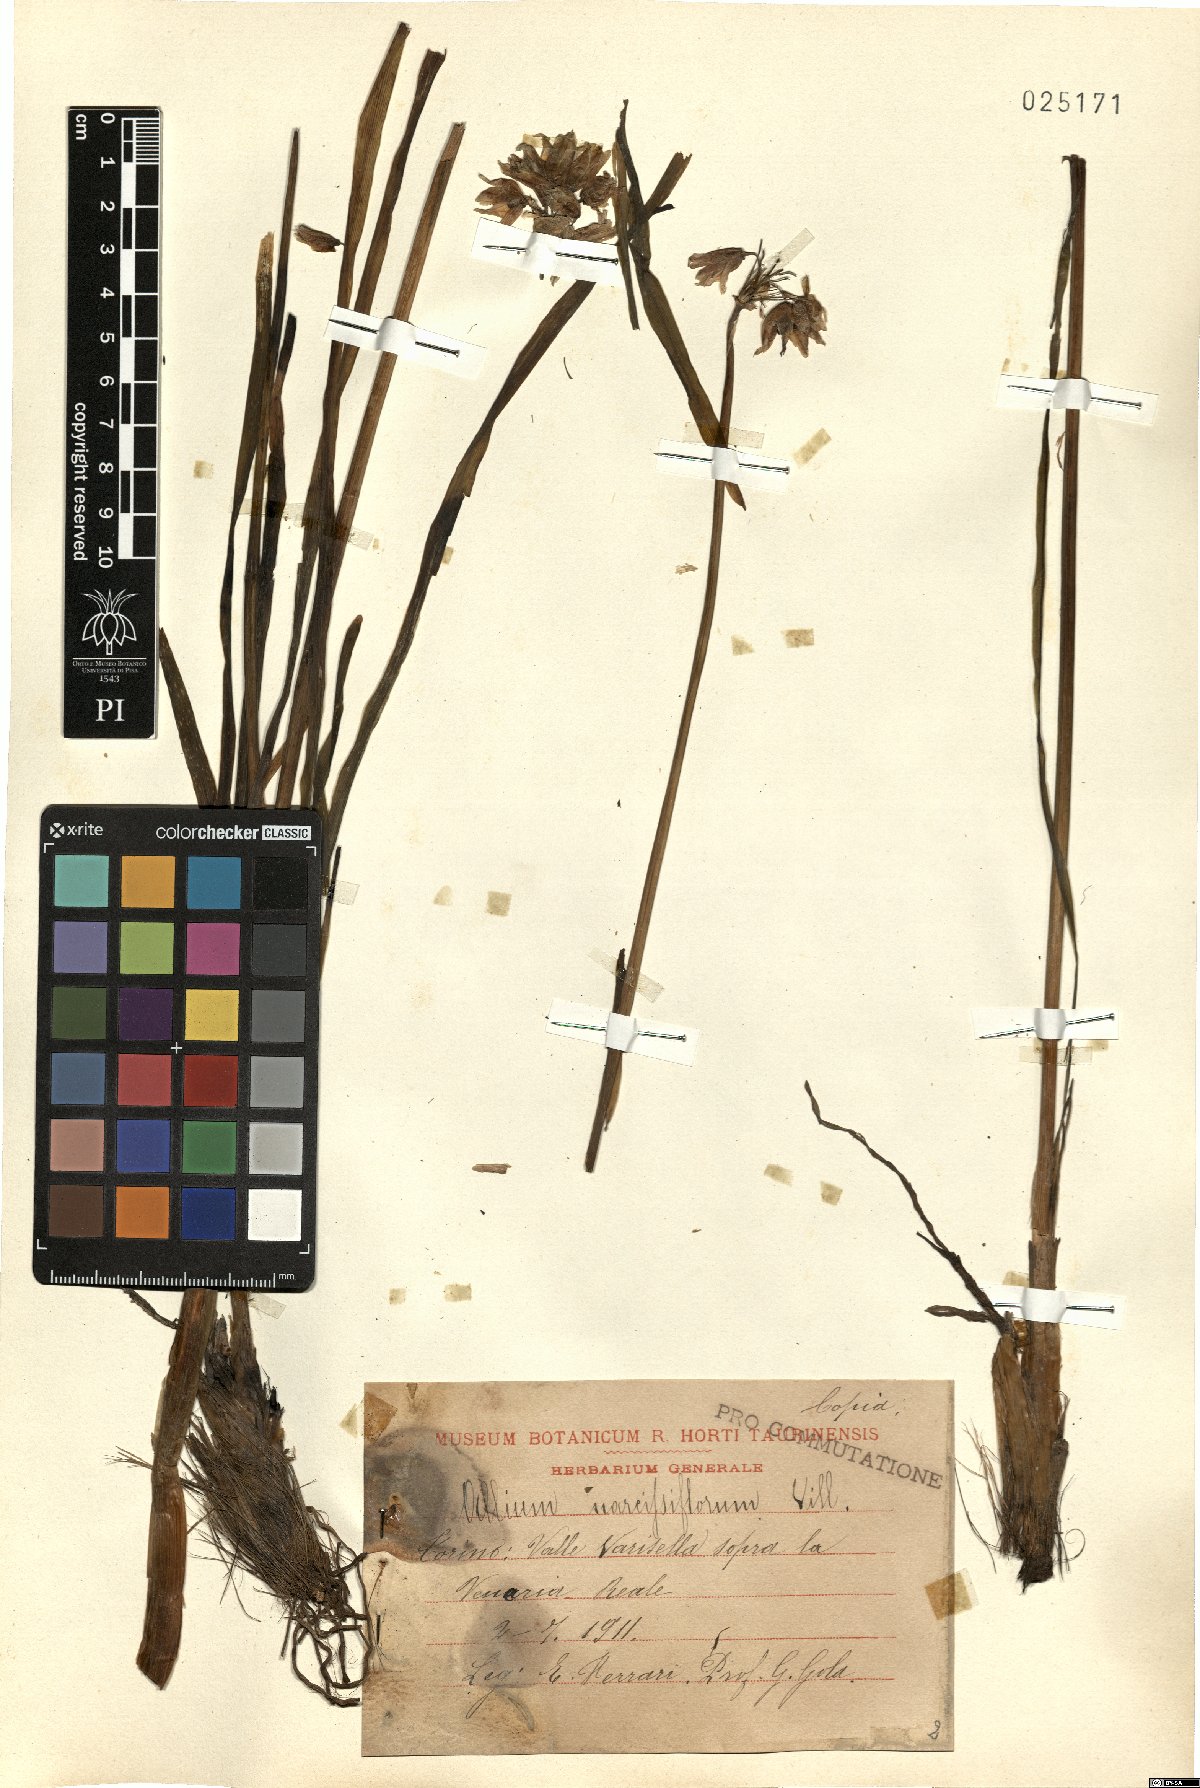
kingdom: Plantae
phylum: Tracheophyta
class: Liliopsida
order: Asparagales
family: Amaryllidaceae
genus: Allium
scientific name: Allium narcissiflorum
